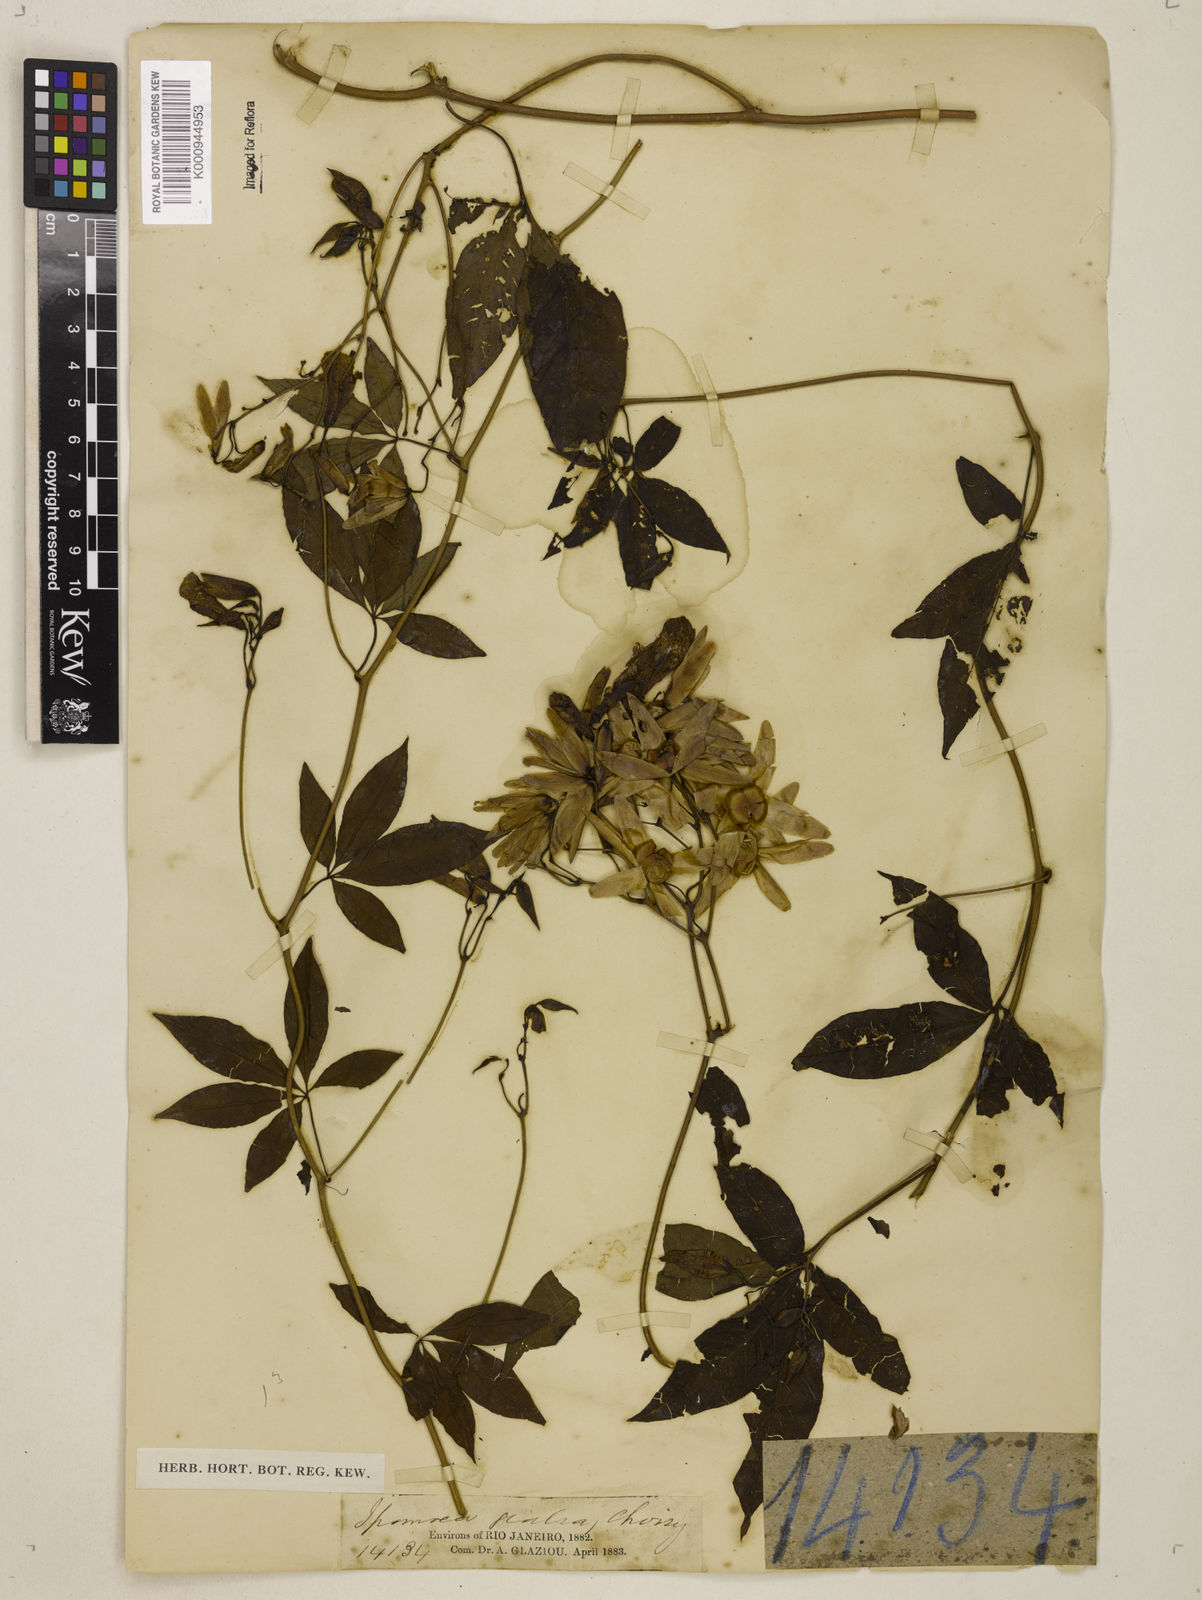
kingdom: Plantae
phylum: Tracheophyta
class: Magnoliopsida
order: Solanales
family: Convolvulaceae
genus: Merremia
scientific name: Merremia
